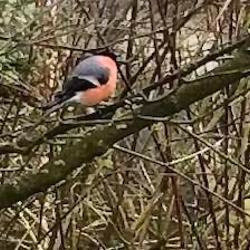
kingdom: Animalia
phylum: Chordata
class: Aves
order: Passeriformes
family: Fringillidae
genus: Pyrrhula
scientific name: Pyrrhula pyrrhula
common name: Dompap
